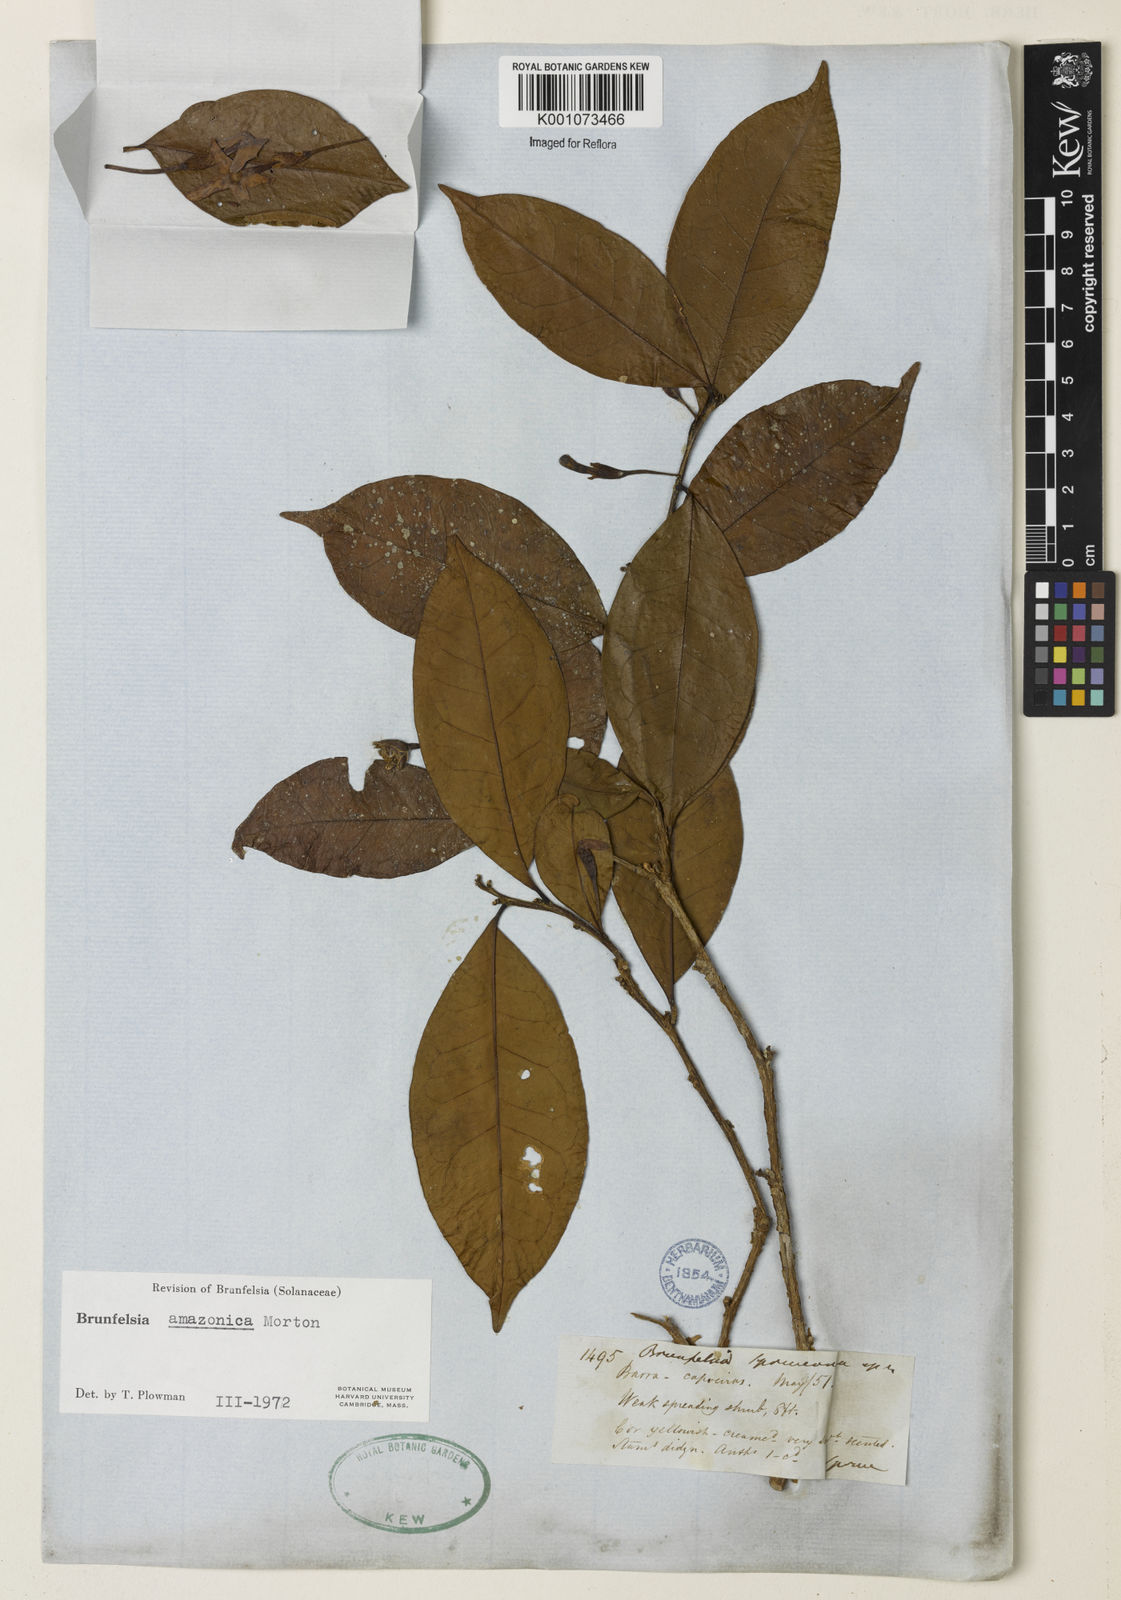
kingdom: Plantae
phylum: Tracheophyta
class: Magnoliopsida
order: Solanales
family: Solanaceae
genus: Brunfelsia
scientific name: Brunfelsia amazonica
